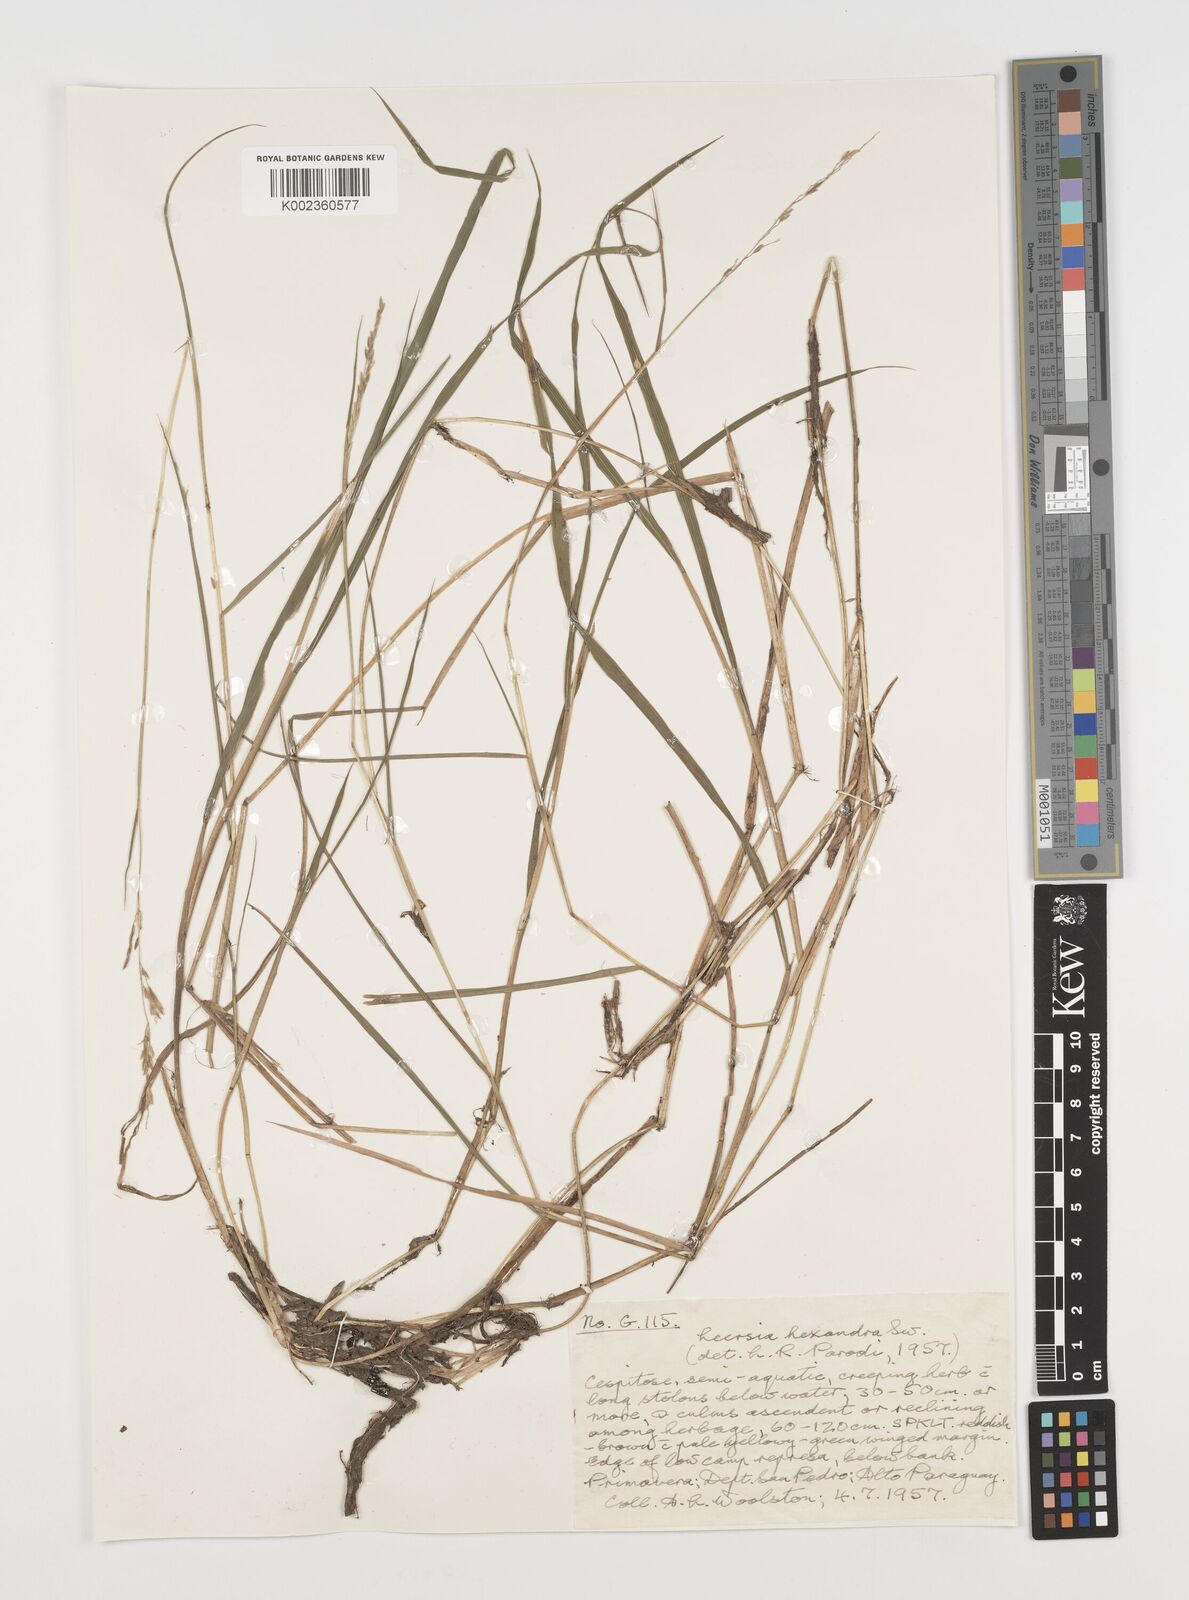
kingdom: Plantae
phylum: Tracheophyta
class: Liliopsida
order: Poales
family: Poaceae
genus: Leersia
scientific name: Leersia hexandra
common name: Southern cut grass
